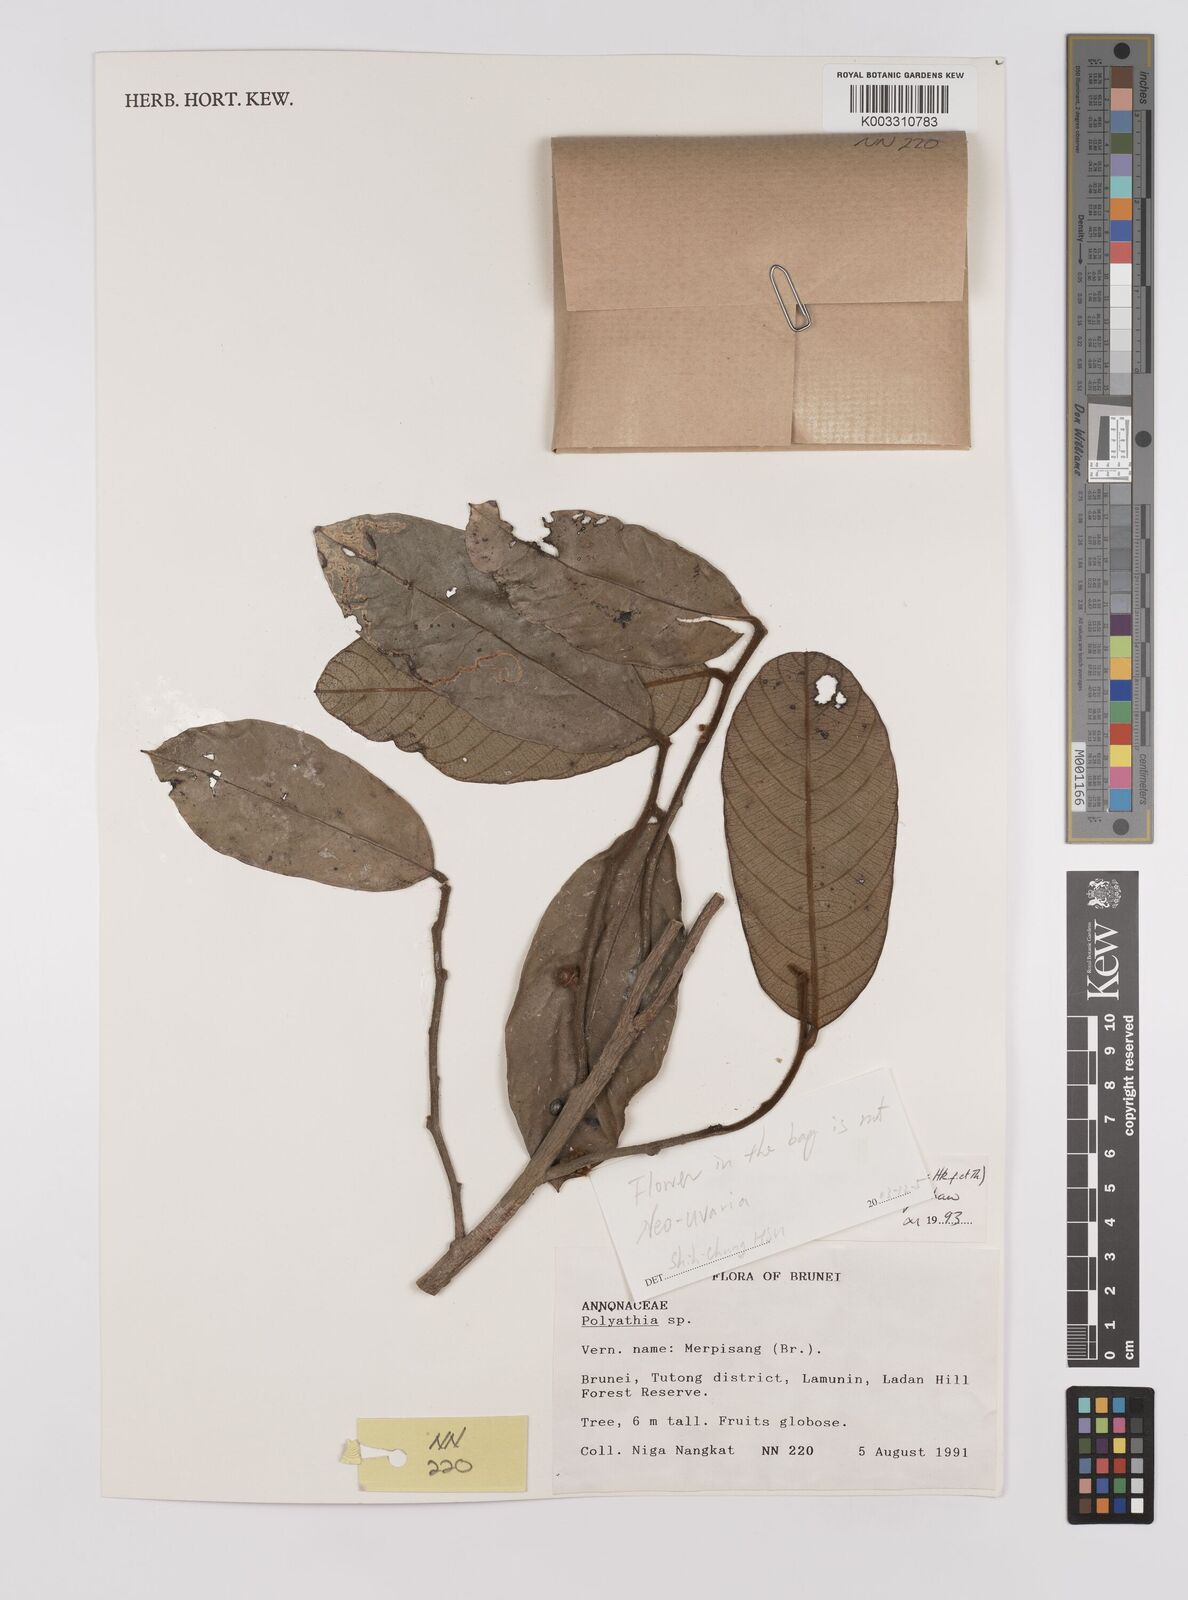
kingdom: Plantae
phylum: Tracheophyta
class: Magnoliopsida
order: Magnoliales
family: Annonaceae
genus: Neouvaria
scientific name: Neouvaria acuminatissima
